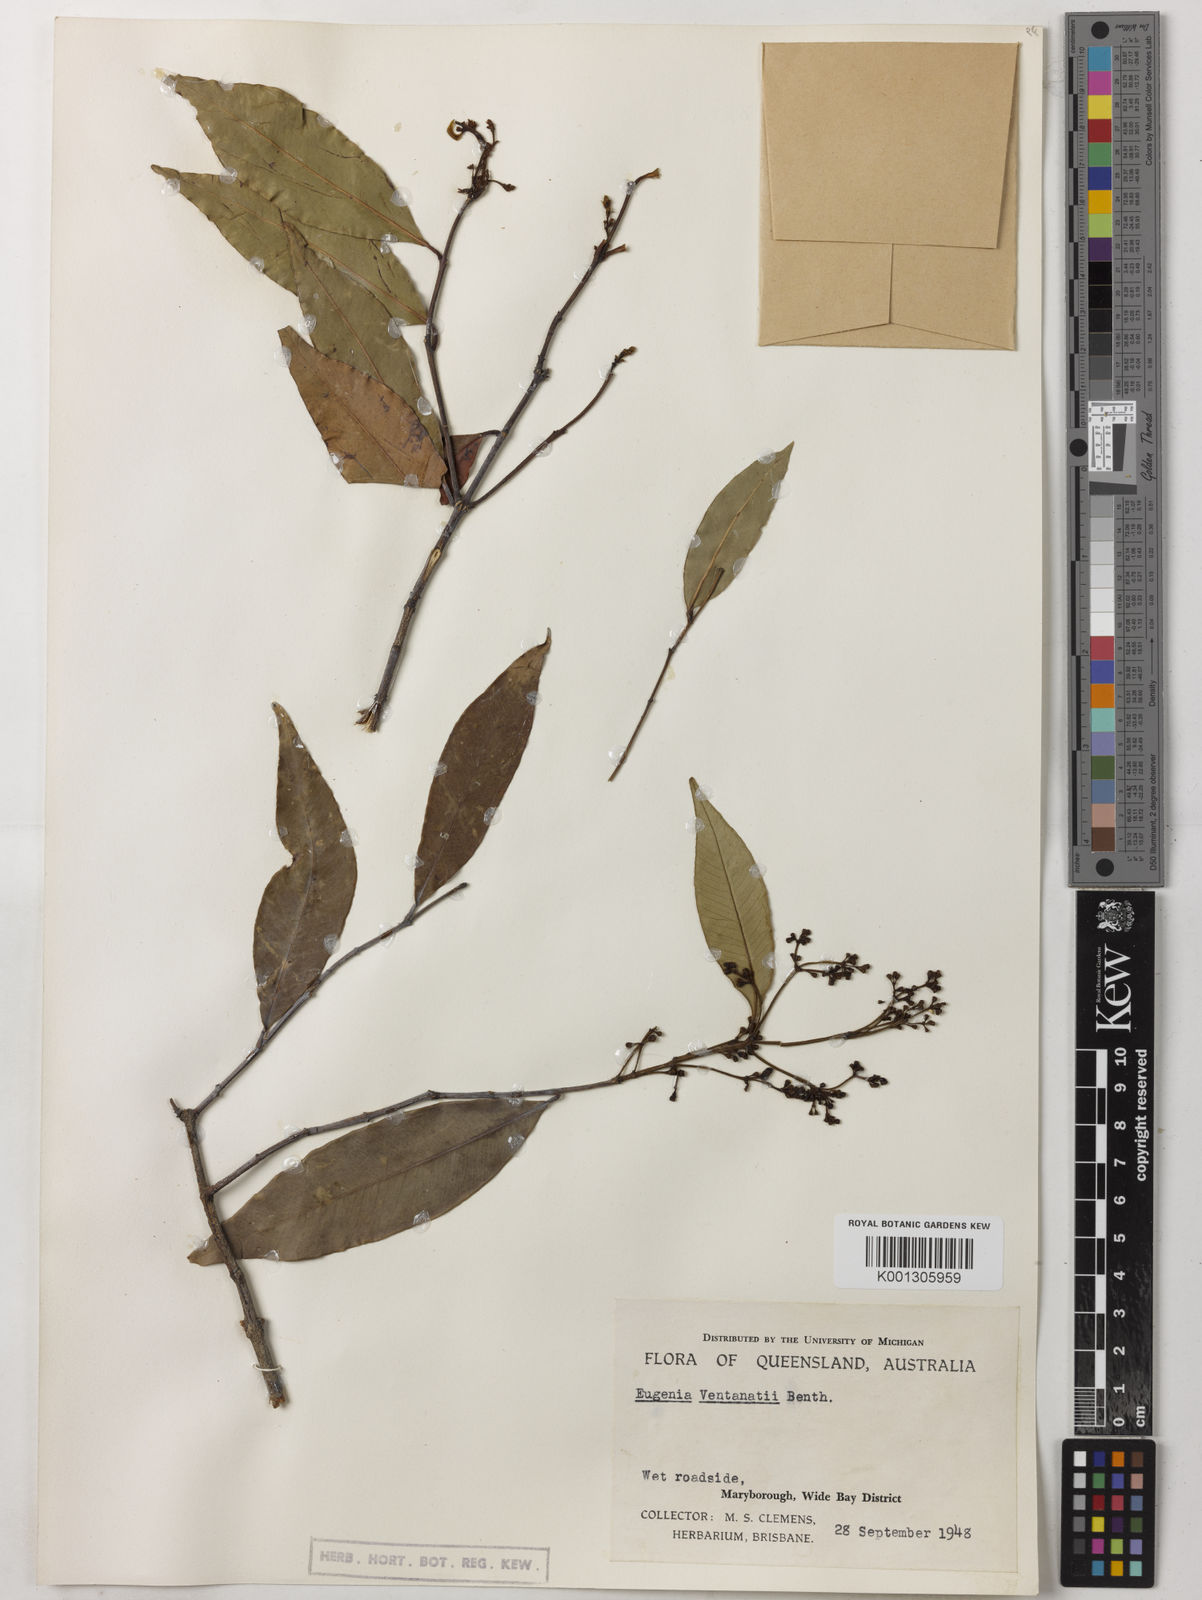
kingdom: Plantae
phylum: Tracheophyta
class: Magnoliopsida
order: Myrtales
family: Myrtaceae
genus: Syzygium
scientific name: Syzygium floribundum
